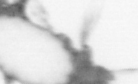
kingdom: Animalia
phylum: Annelida
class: Polychaeta
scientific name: Polychaeta
